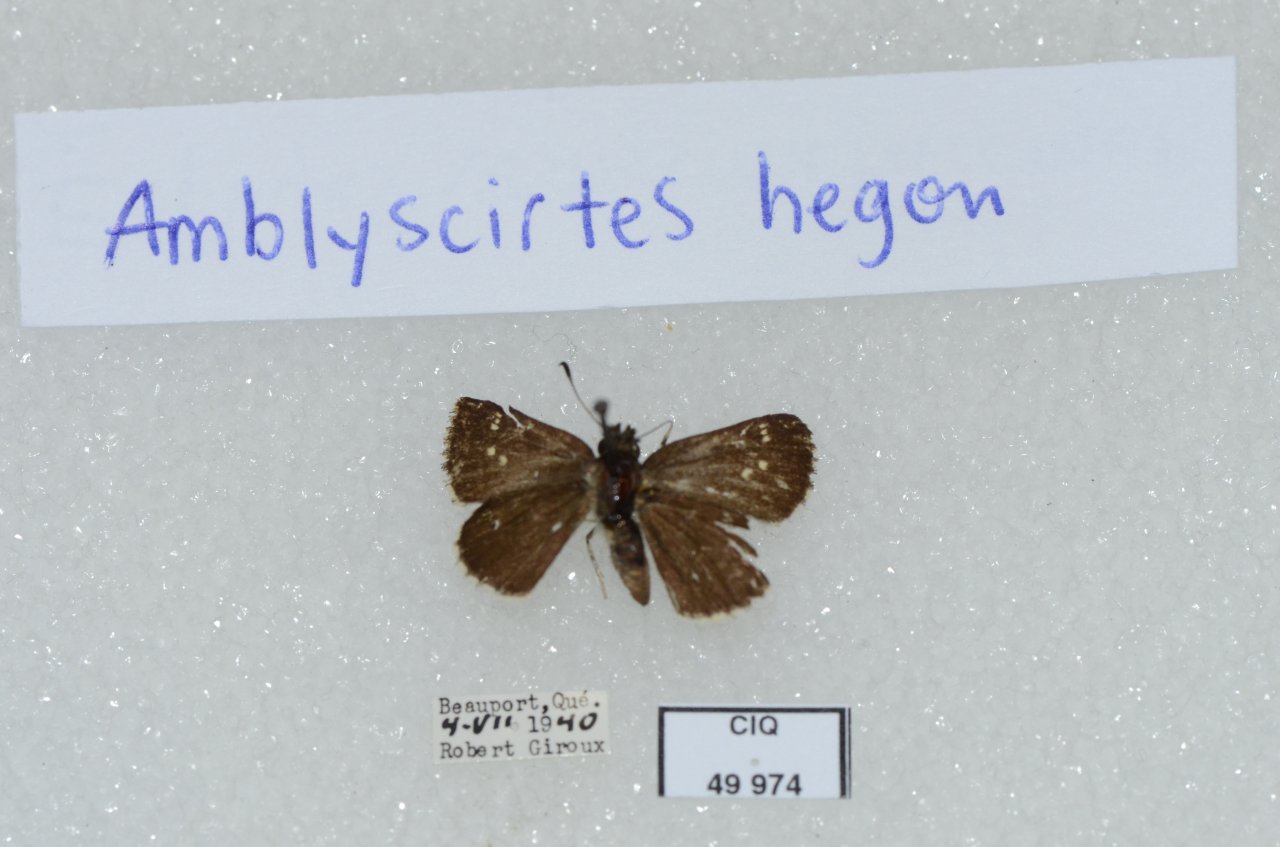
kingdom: Animalia
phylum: Arthropoda
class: Insecta
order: Lepidoptera
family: Hesperiidae
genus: Mastor
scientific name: Mastor hegon
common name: Pepper and Salt Skipper
